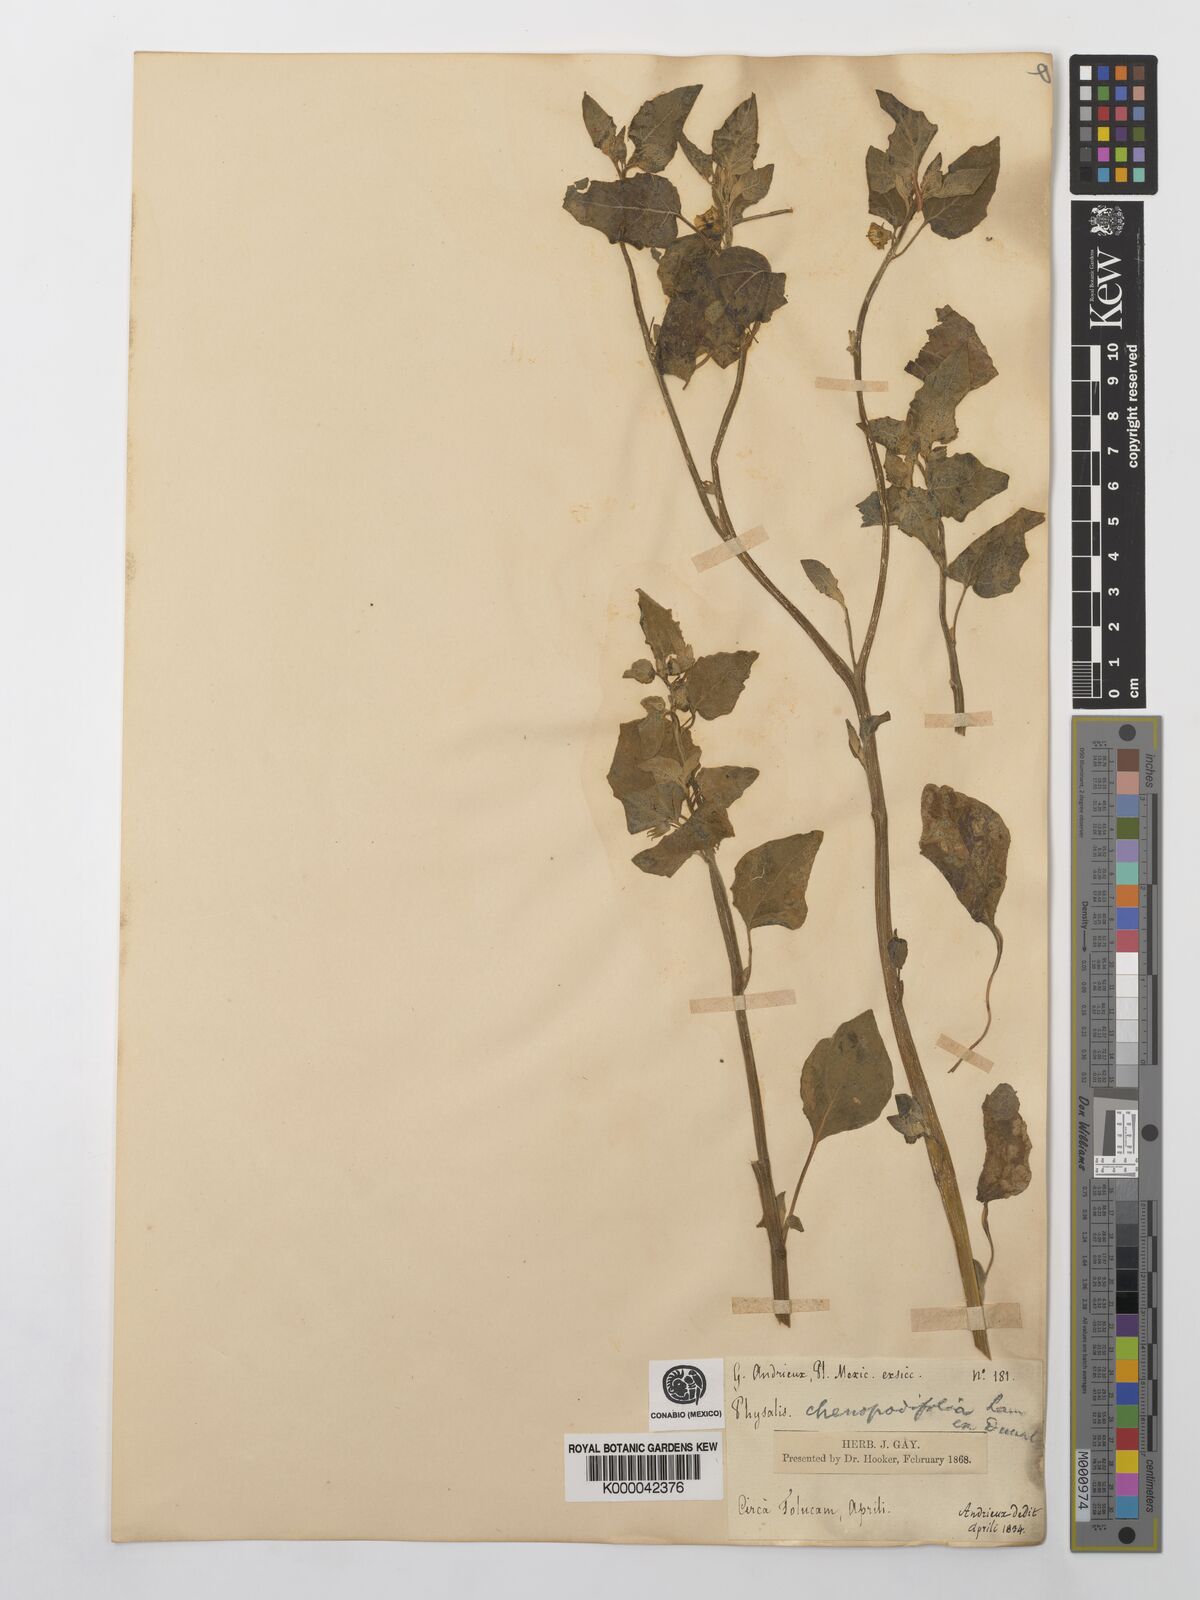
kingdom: Plantae
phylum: Tracheophyta
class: Magnoliopsida
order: Solanales
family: Solanaceae
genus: Physalis
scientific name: Physalis peruviana
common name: Cape-gooseberry
